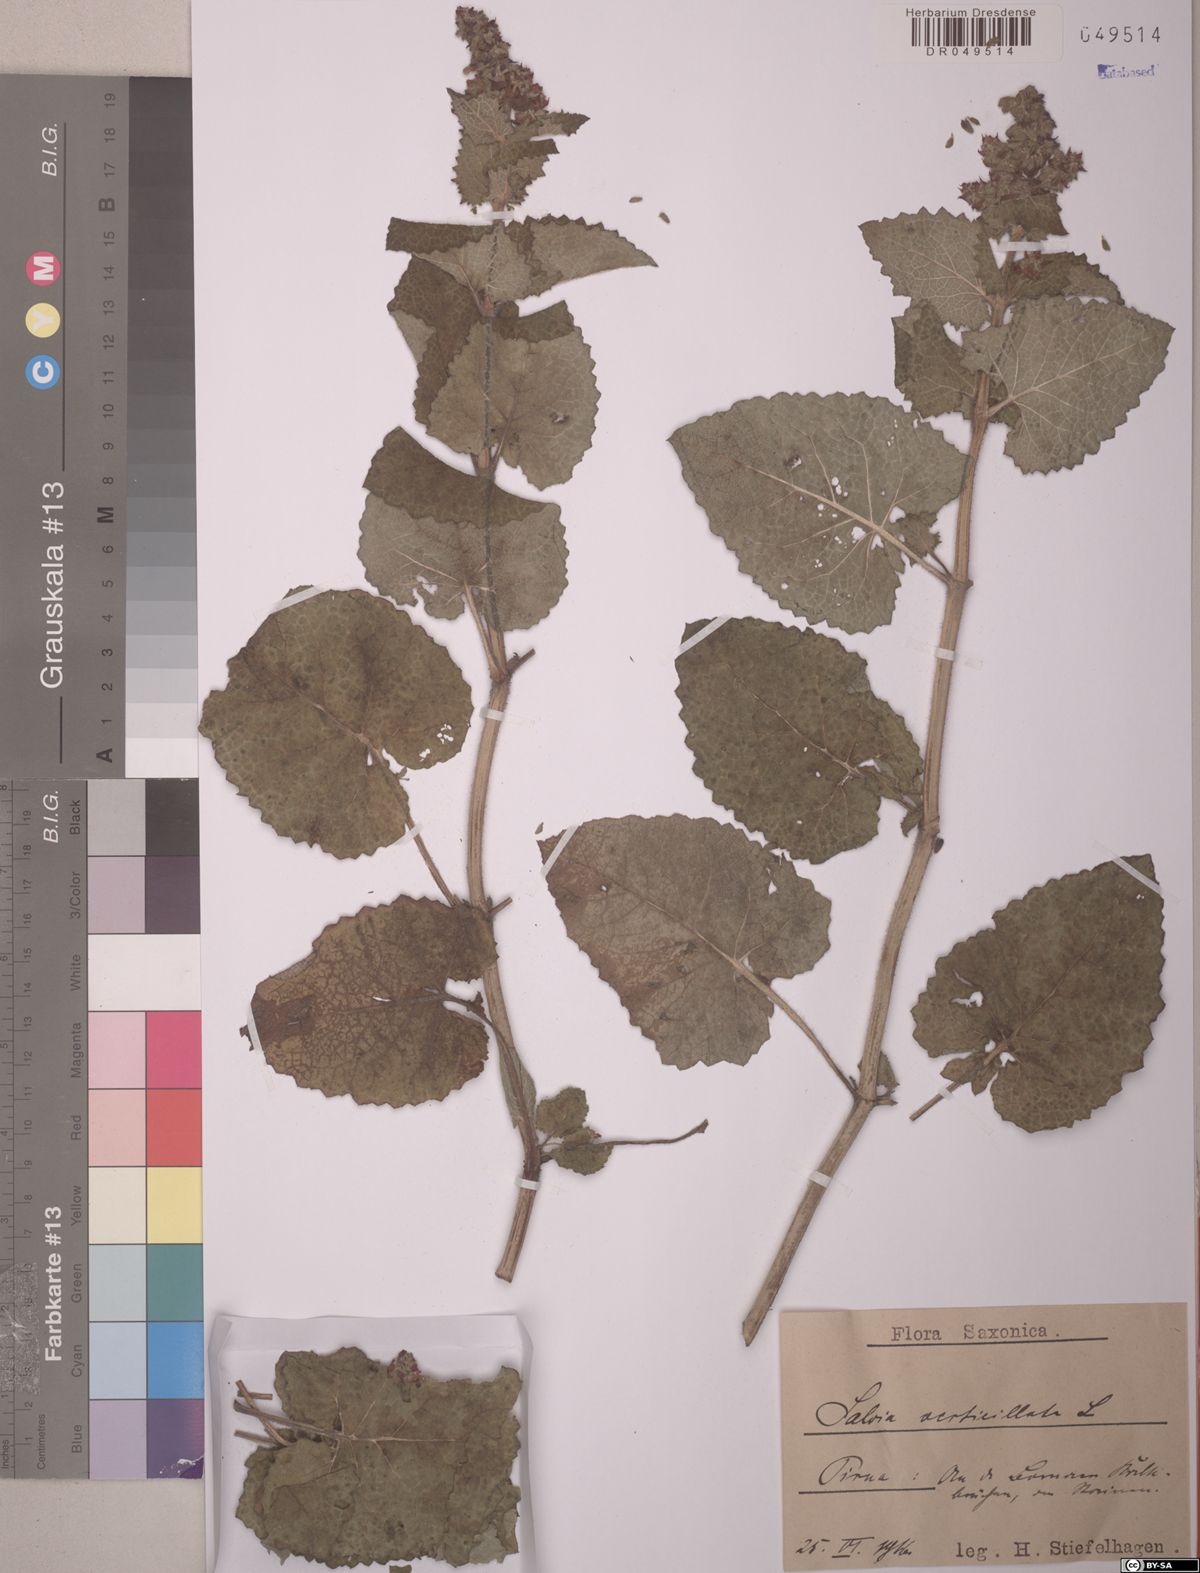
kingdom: Plantae
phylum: Tracheophyta
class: Magnoliopsida
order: Lamiales
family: Lamiaceae
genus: Salvia
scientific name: Salvia verticillata
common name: Whorled clary
